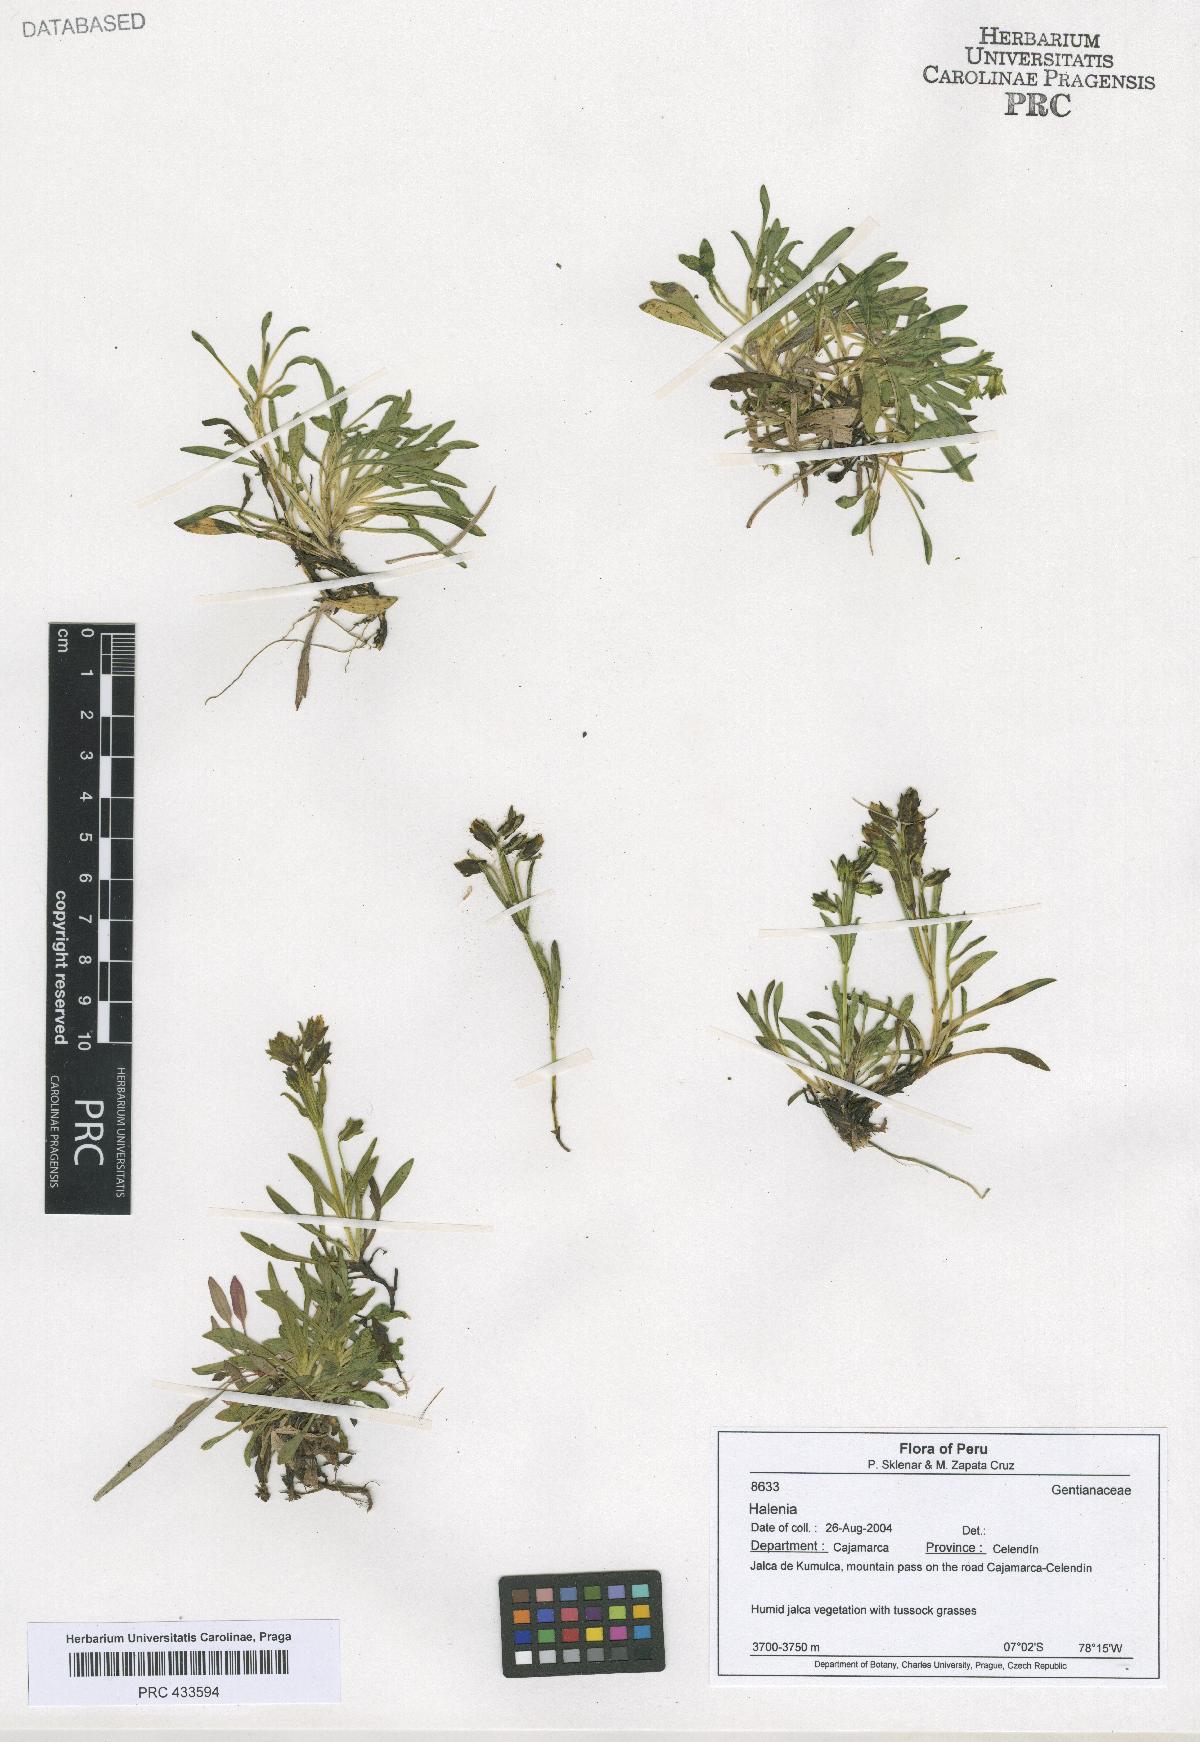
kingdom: Plantae
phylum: Tracheophyta
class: Magnoliopsida
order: Gentianales
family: Gentianaceae
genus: Halenia
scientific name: Halenia
